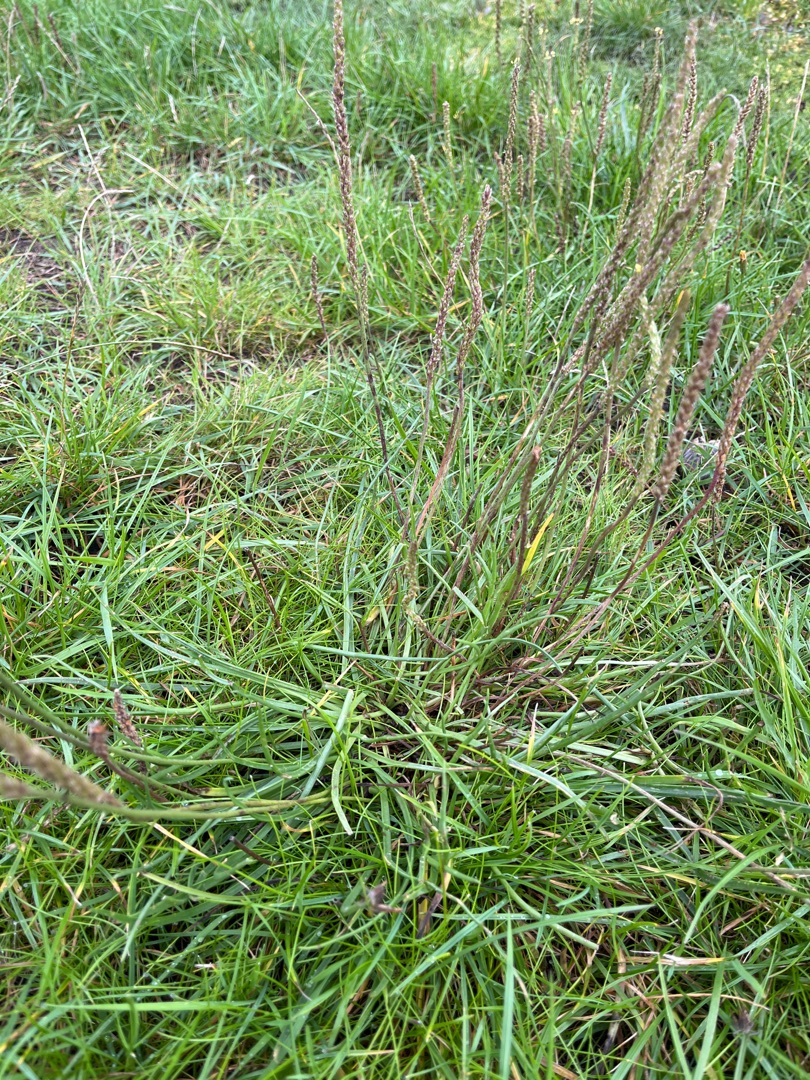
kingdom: Plantae
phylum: Tracheophyta
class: Magnoliopsida
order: Lamiales
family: Plantaginaceae
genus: Plantago
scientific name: Plantago maritima
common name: Strand-vejbred
